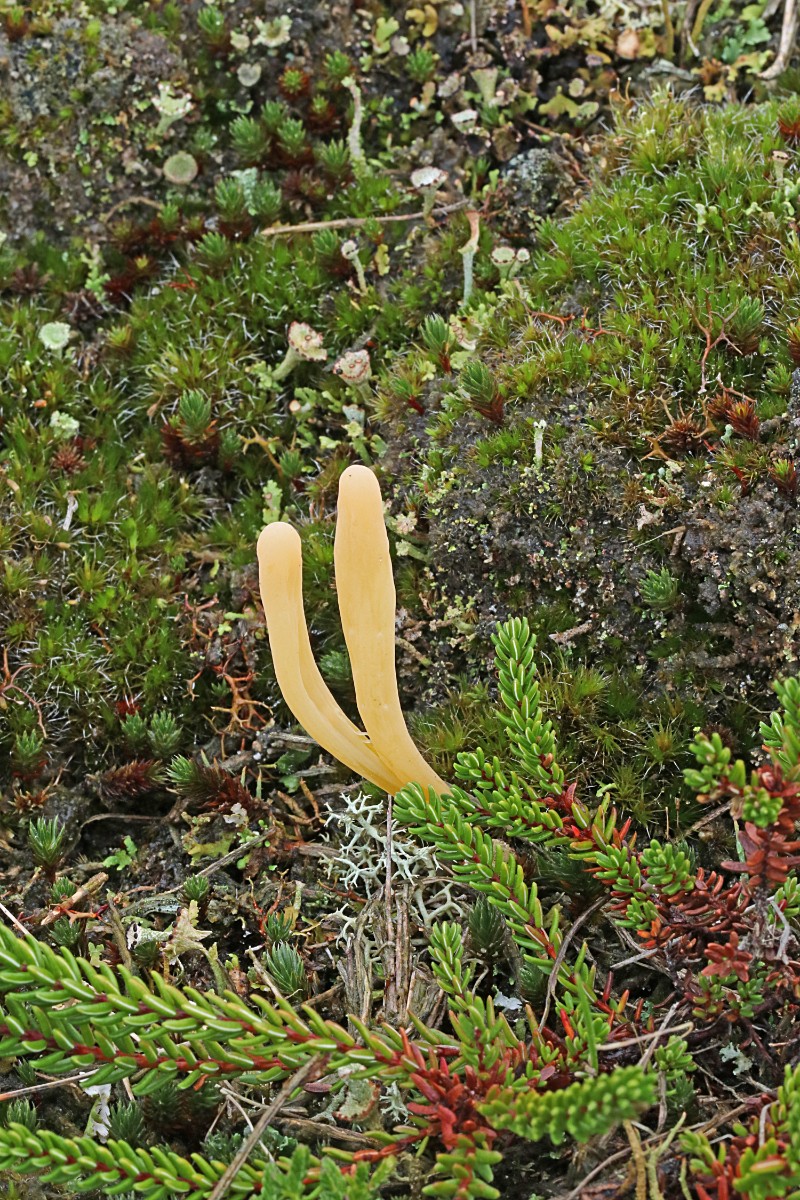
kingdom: Fungi
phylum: Basidiomycota
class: Agaricomycetes
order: Agaricales
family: Clavariaceae
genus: Clavaria
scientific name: Clavaria argillacea
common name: lerfarvet køllesvamp
